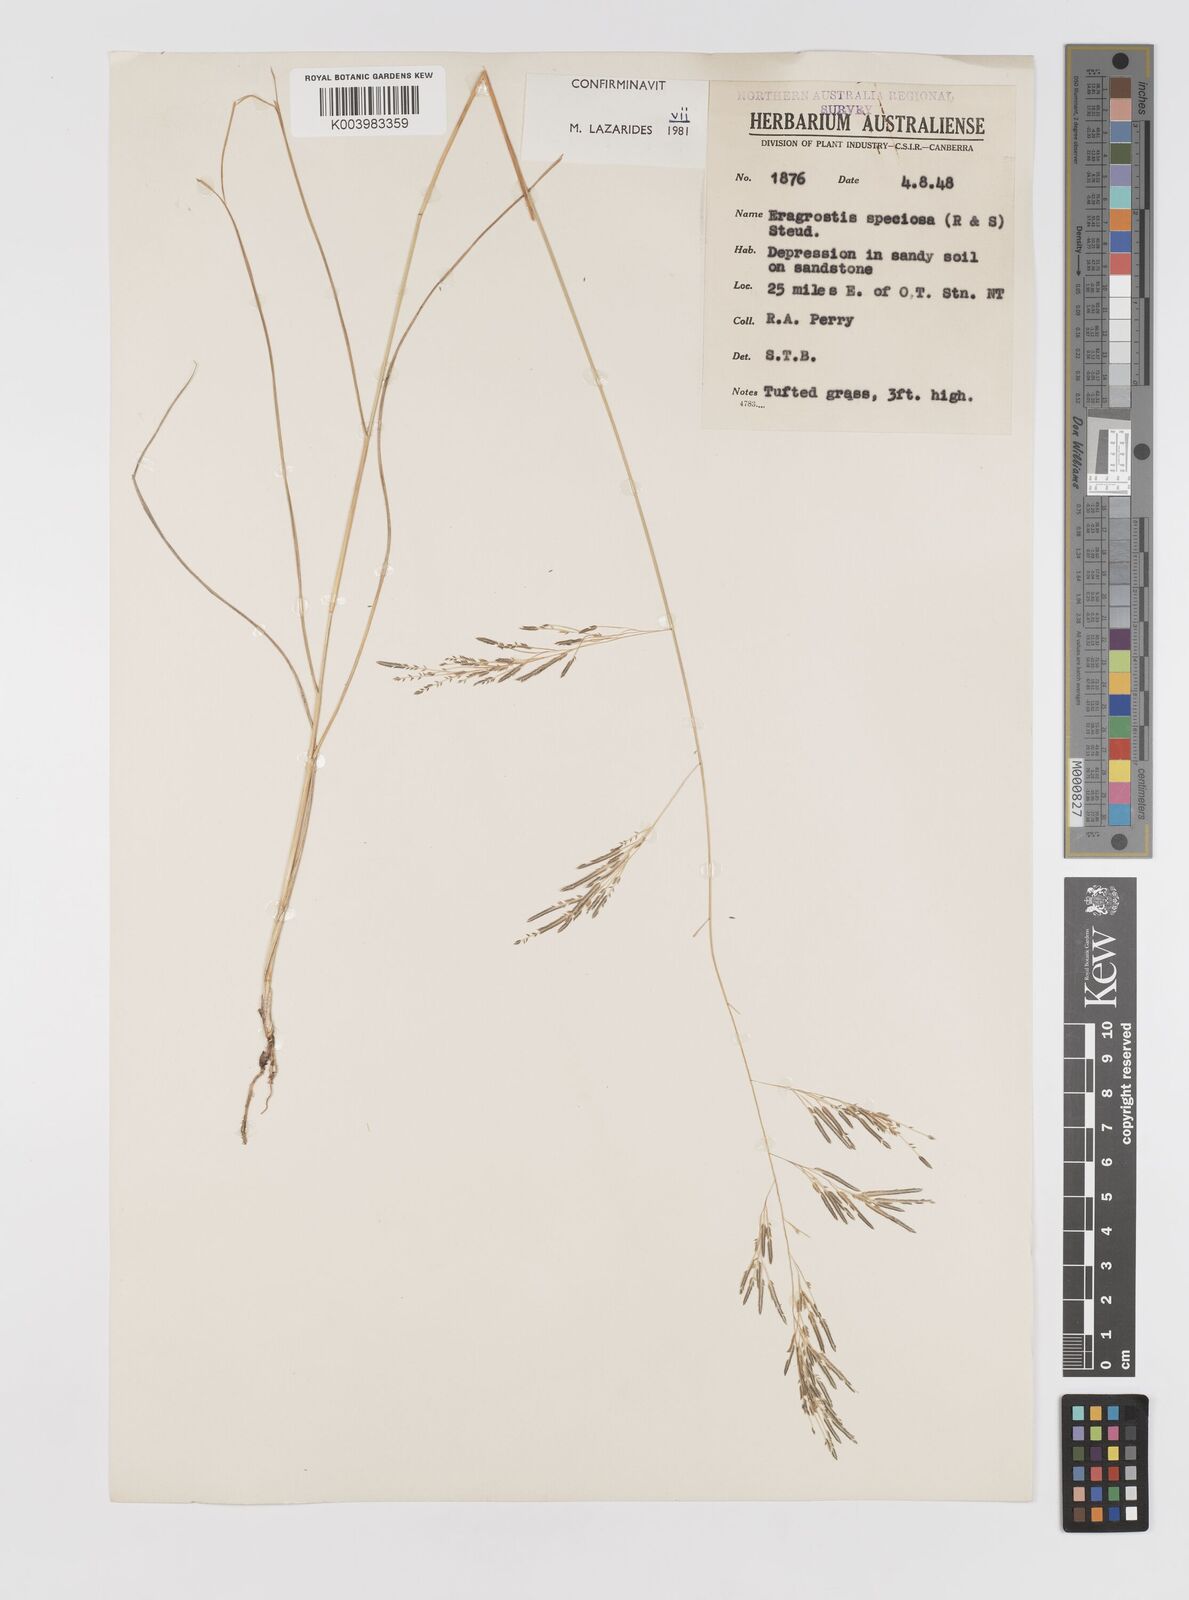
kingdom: Plantae
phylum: Tracheophyta
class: Liliopsida
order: Poales
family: Poaceae
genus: Eragrostis
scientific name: Eragrostis speciosa
